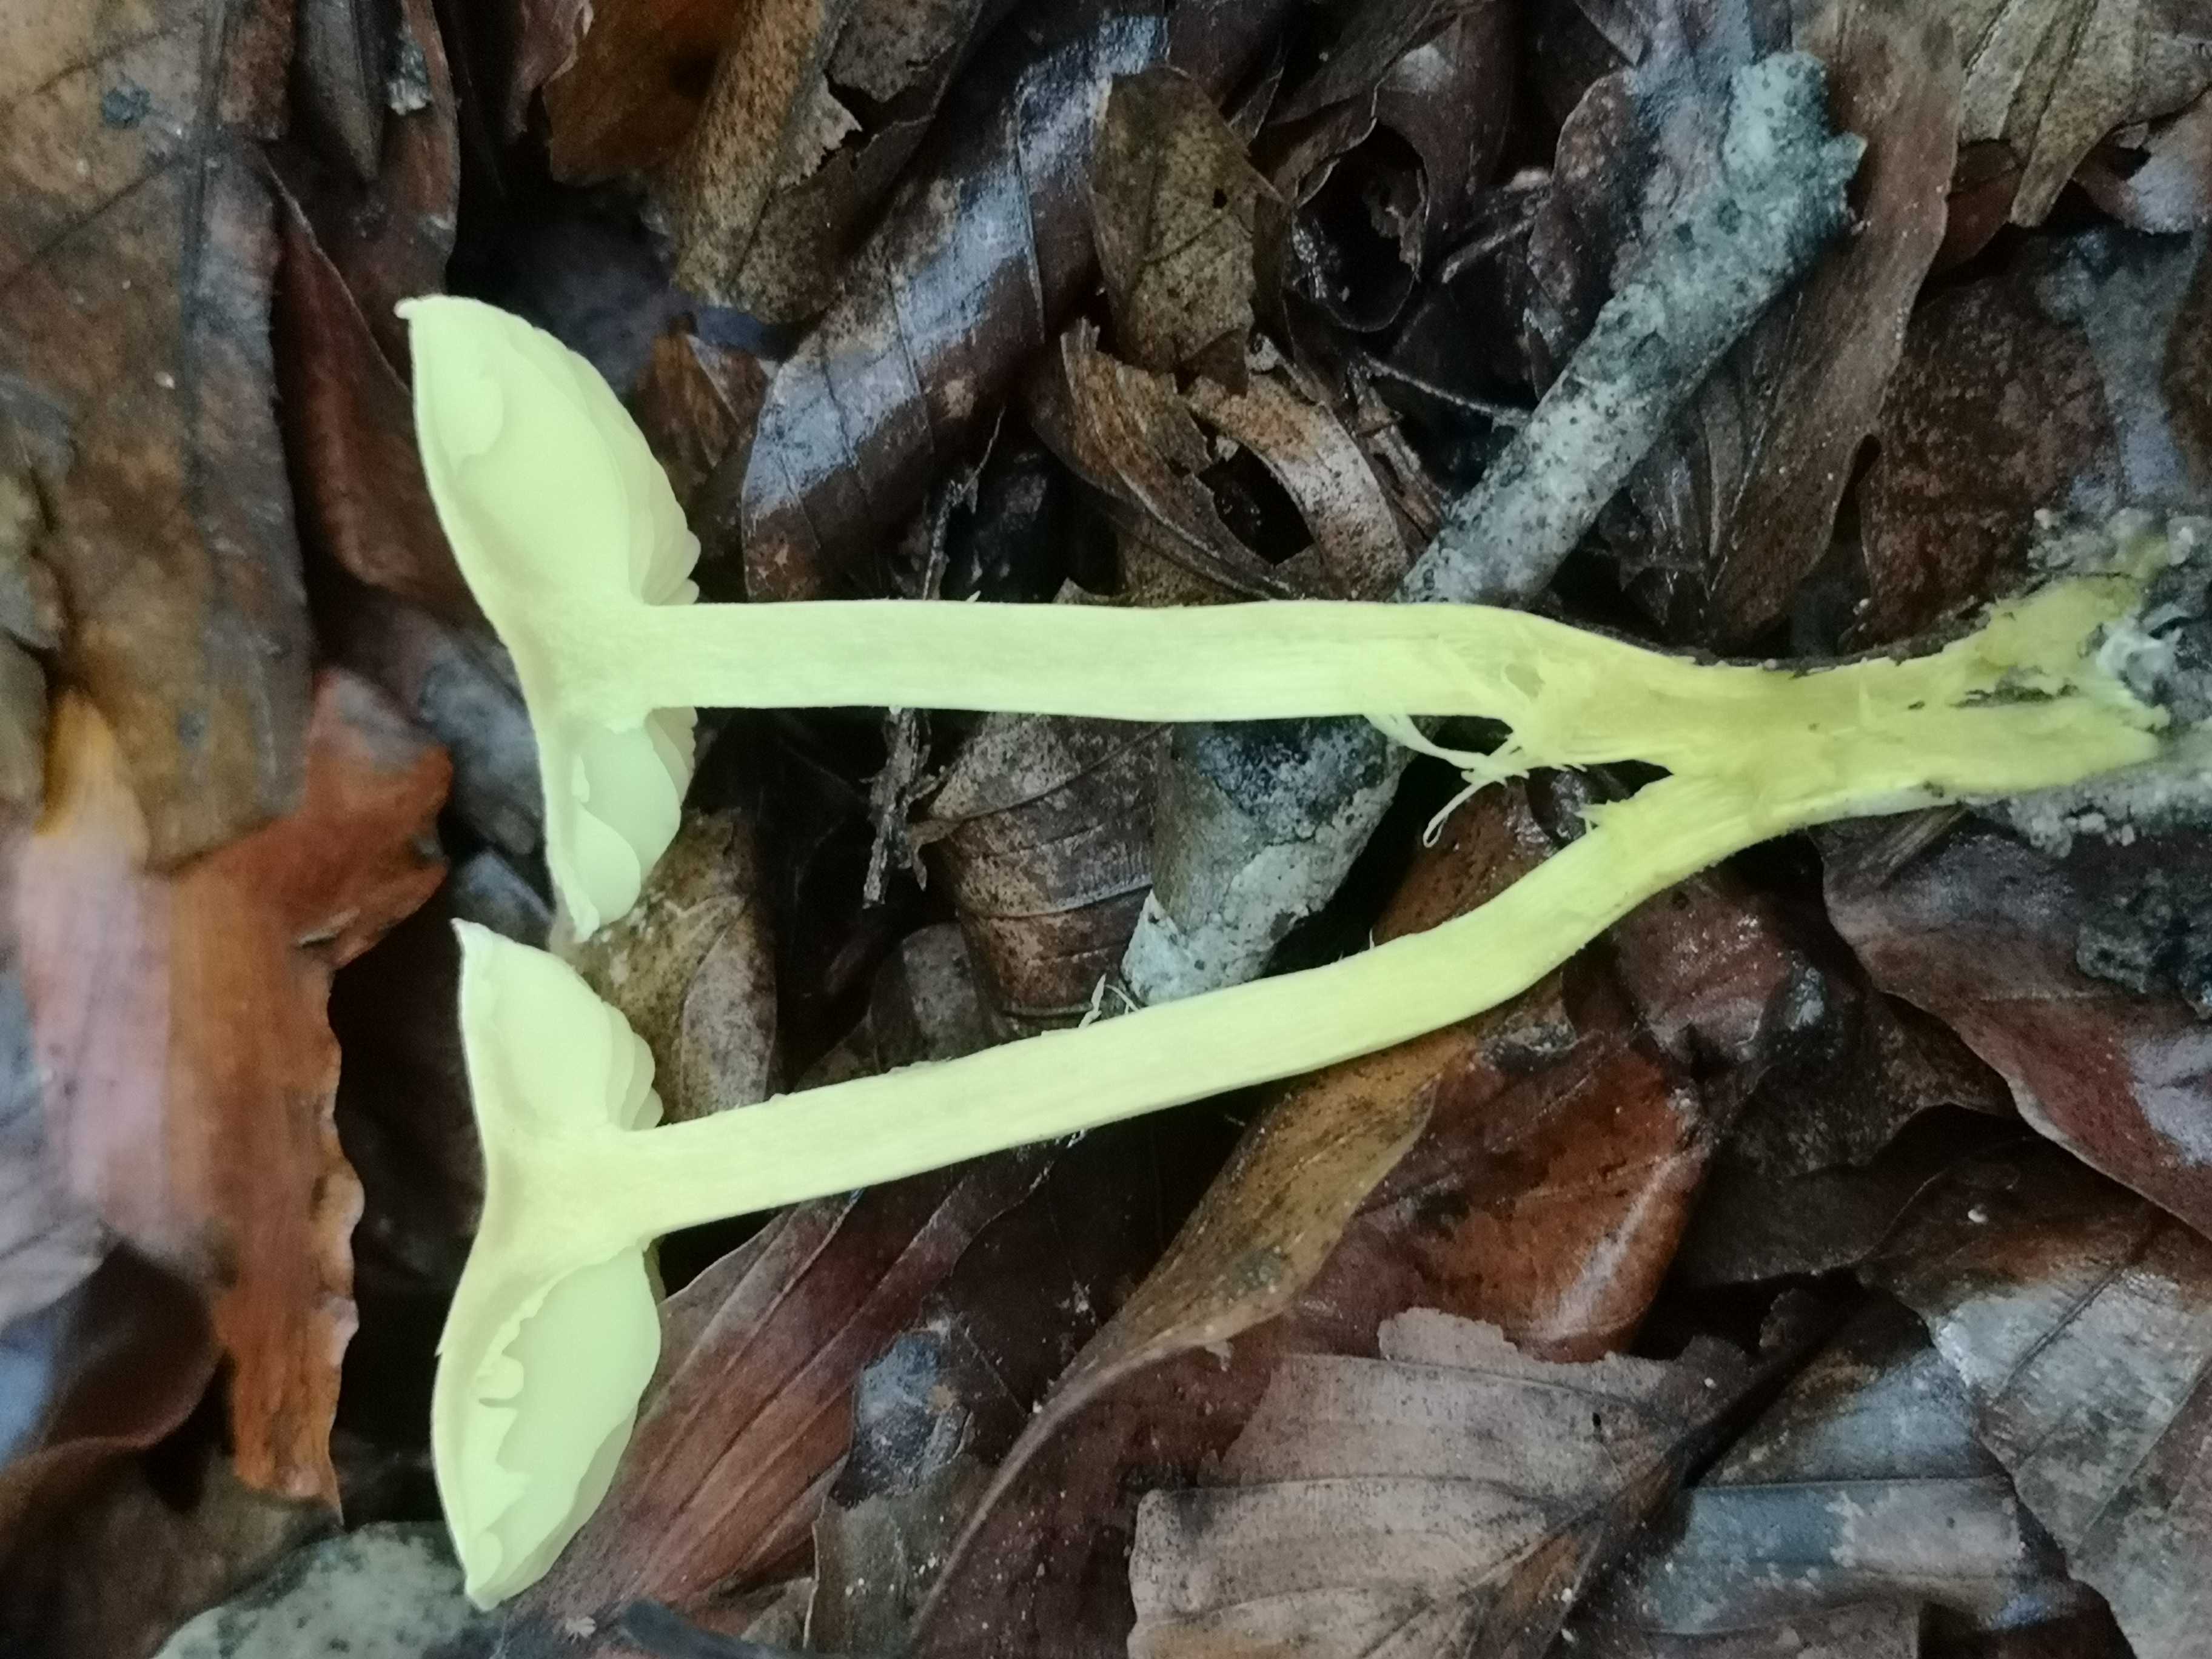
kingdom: Fungi
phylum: Basidiomycota
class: Agaricomycetes
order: Agaricales
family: Tricholomataceae
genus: Tricholoma
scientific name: Tricholoma sulphureum
